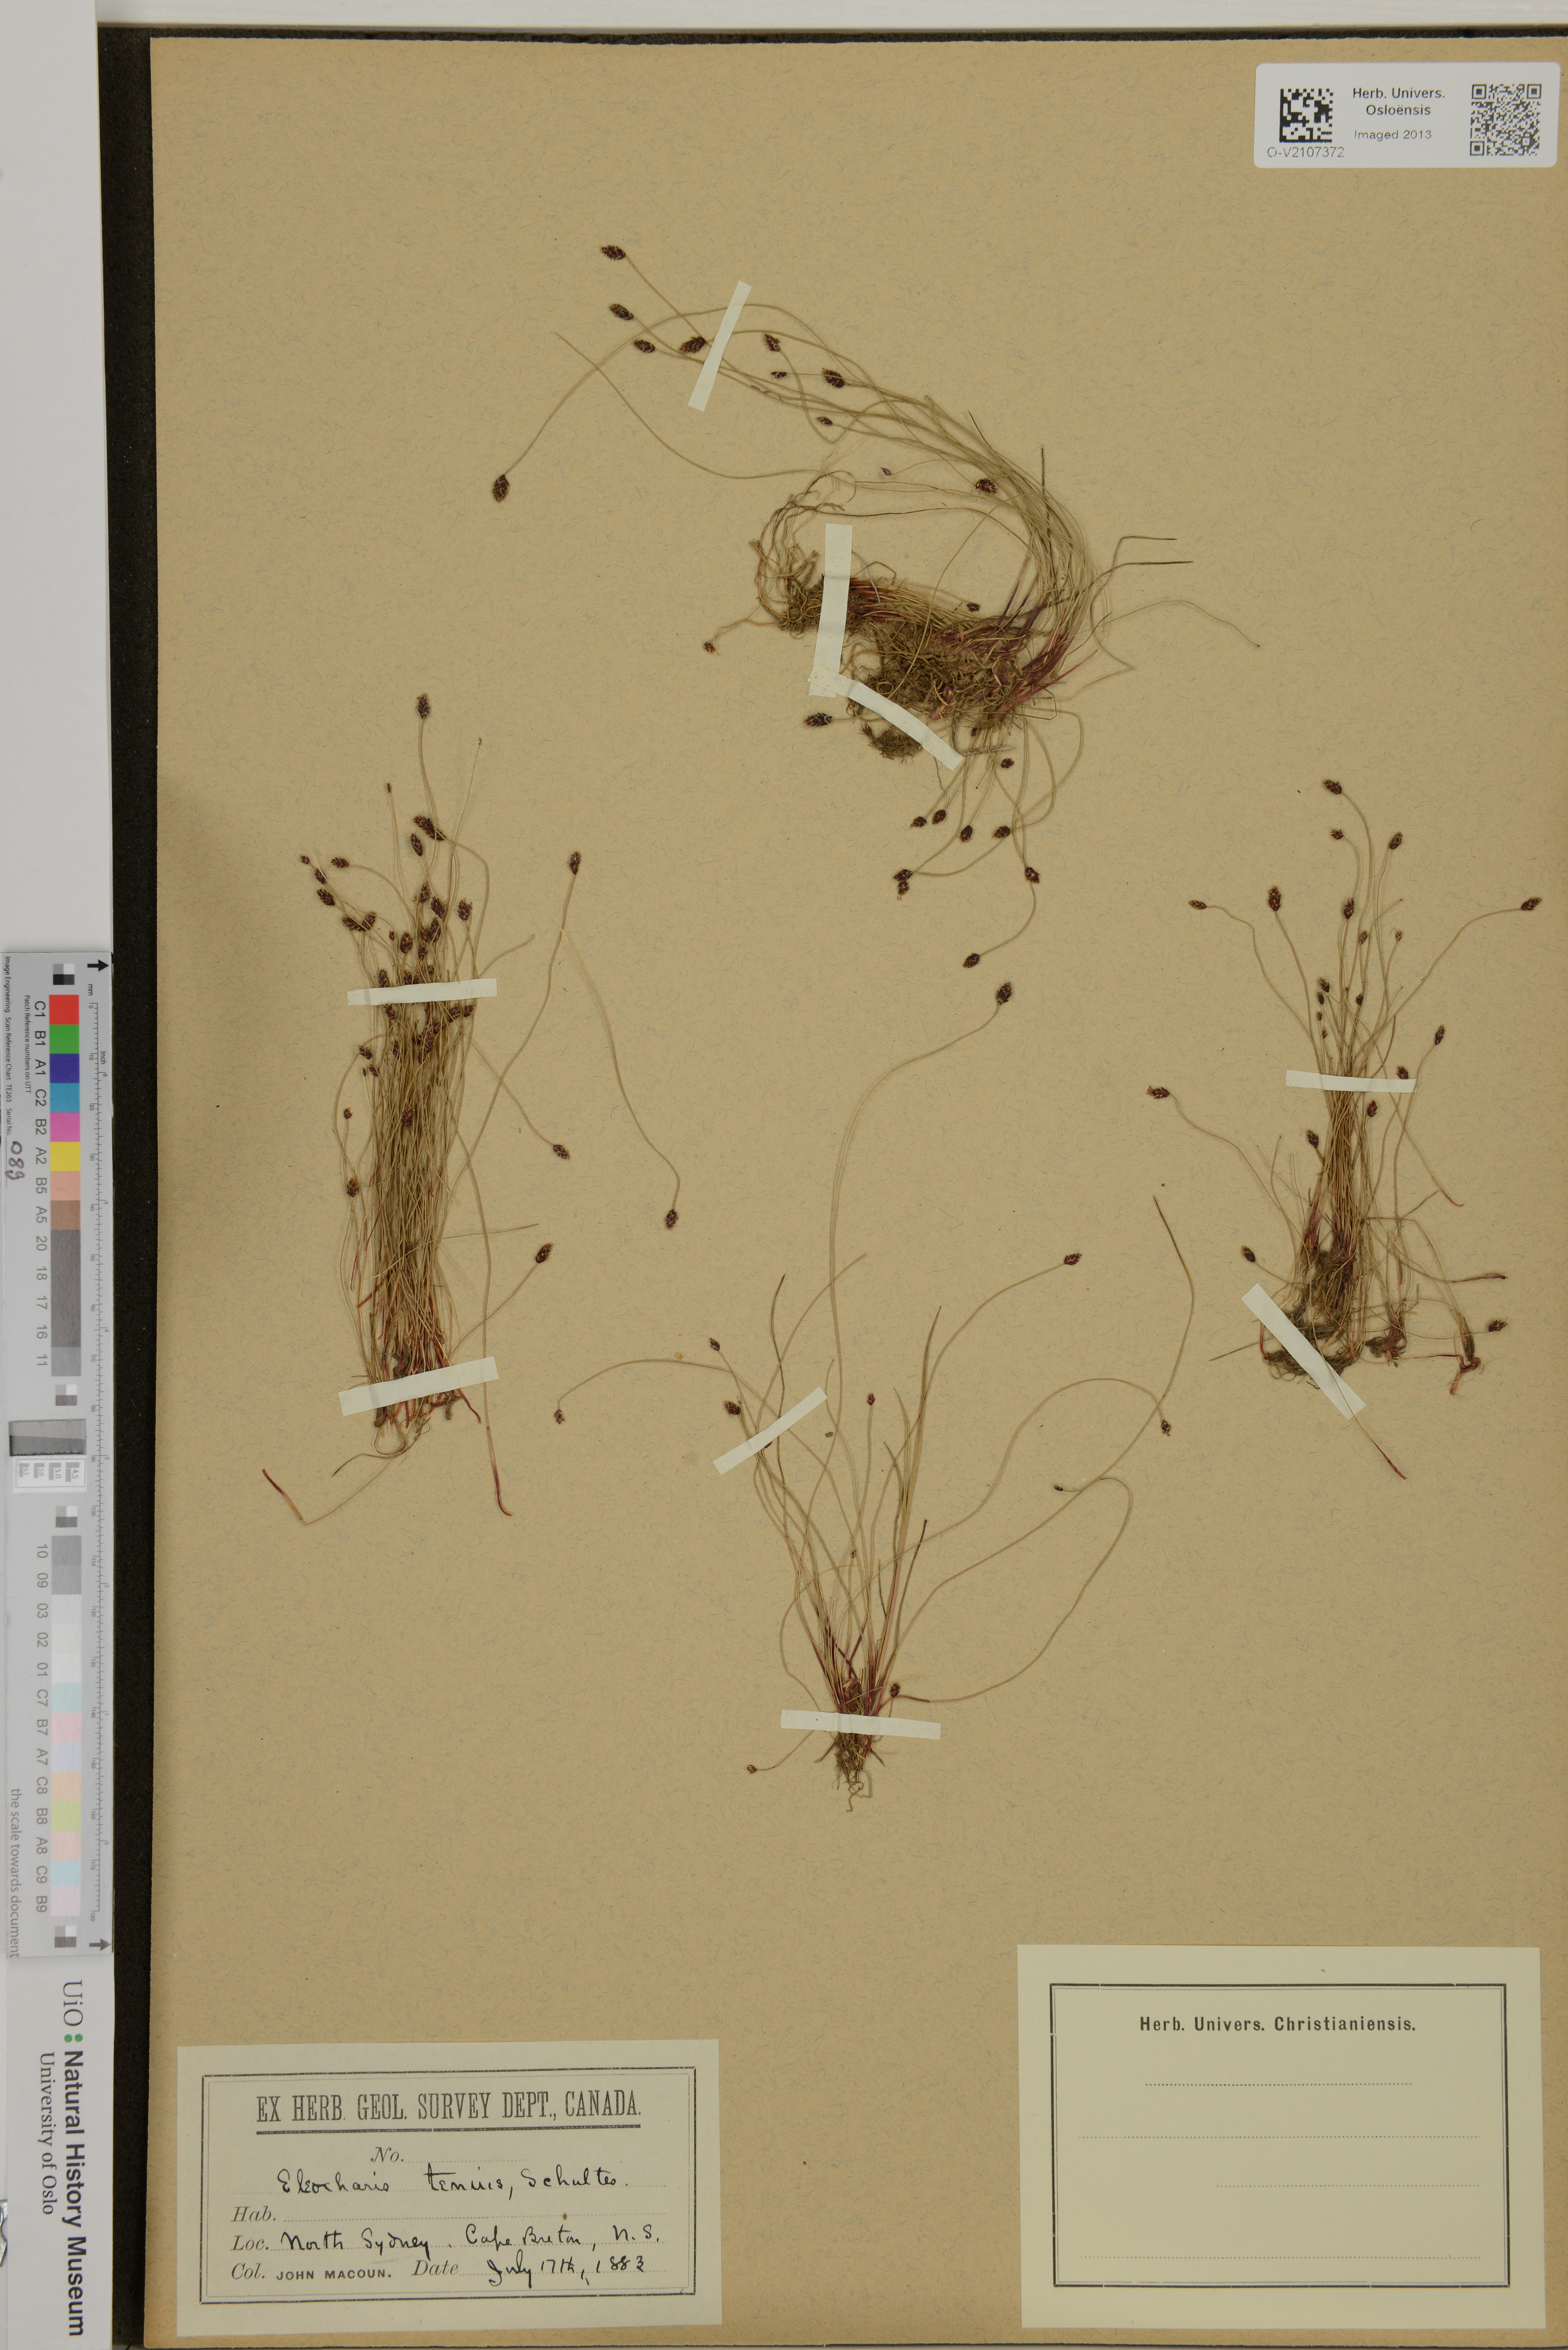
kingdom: Plantae
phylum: Tracheophyta
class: Liliopsida
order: Poales
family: Cyperaceae
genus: Eleocharis
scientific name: Eleocharis tenuis
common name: Dog's hair
